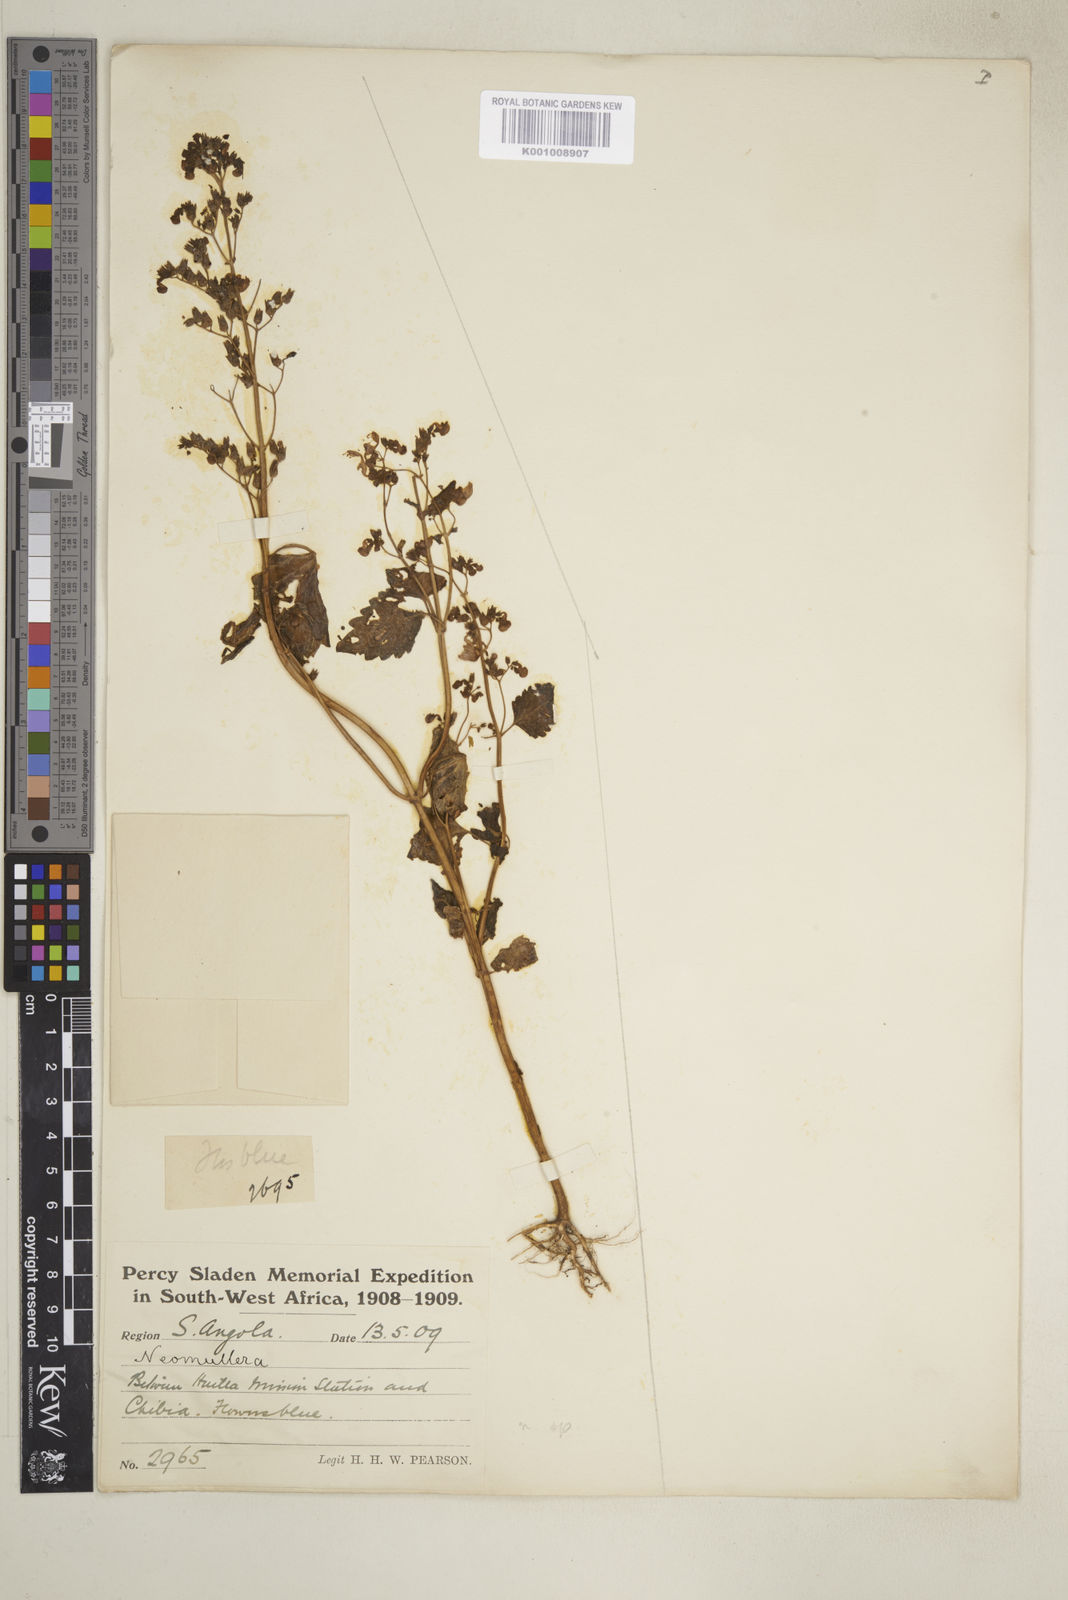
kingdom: Plantae
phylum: Tracheophyta
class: Magnoliopsida
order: Lamiales
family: Lamiaceae
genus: Coleus
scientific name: Coleus hereroensis
